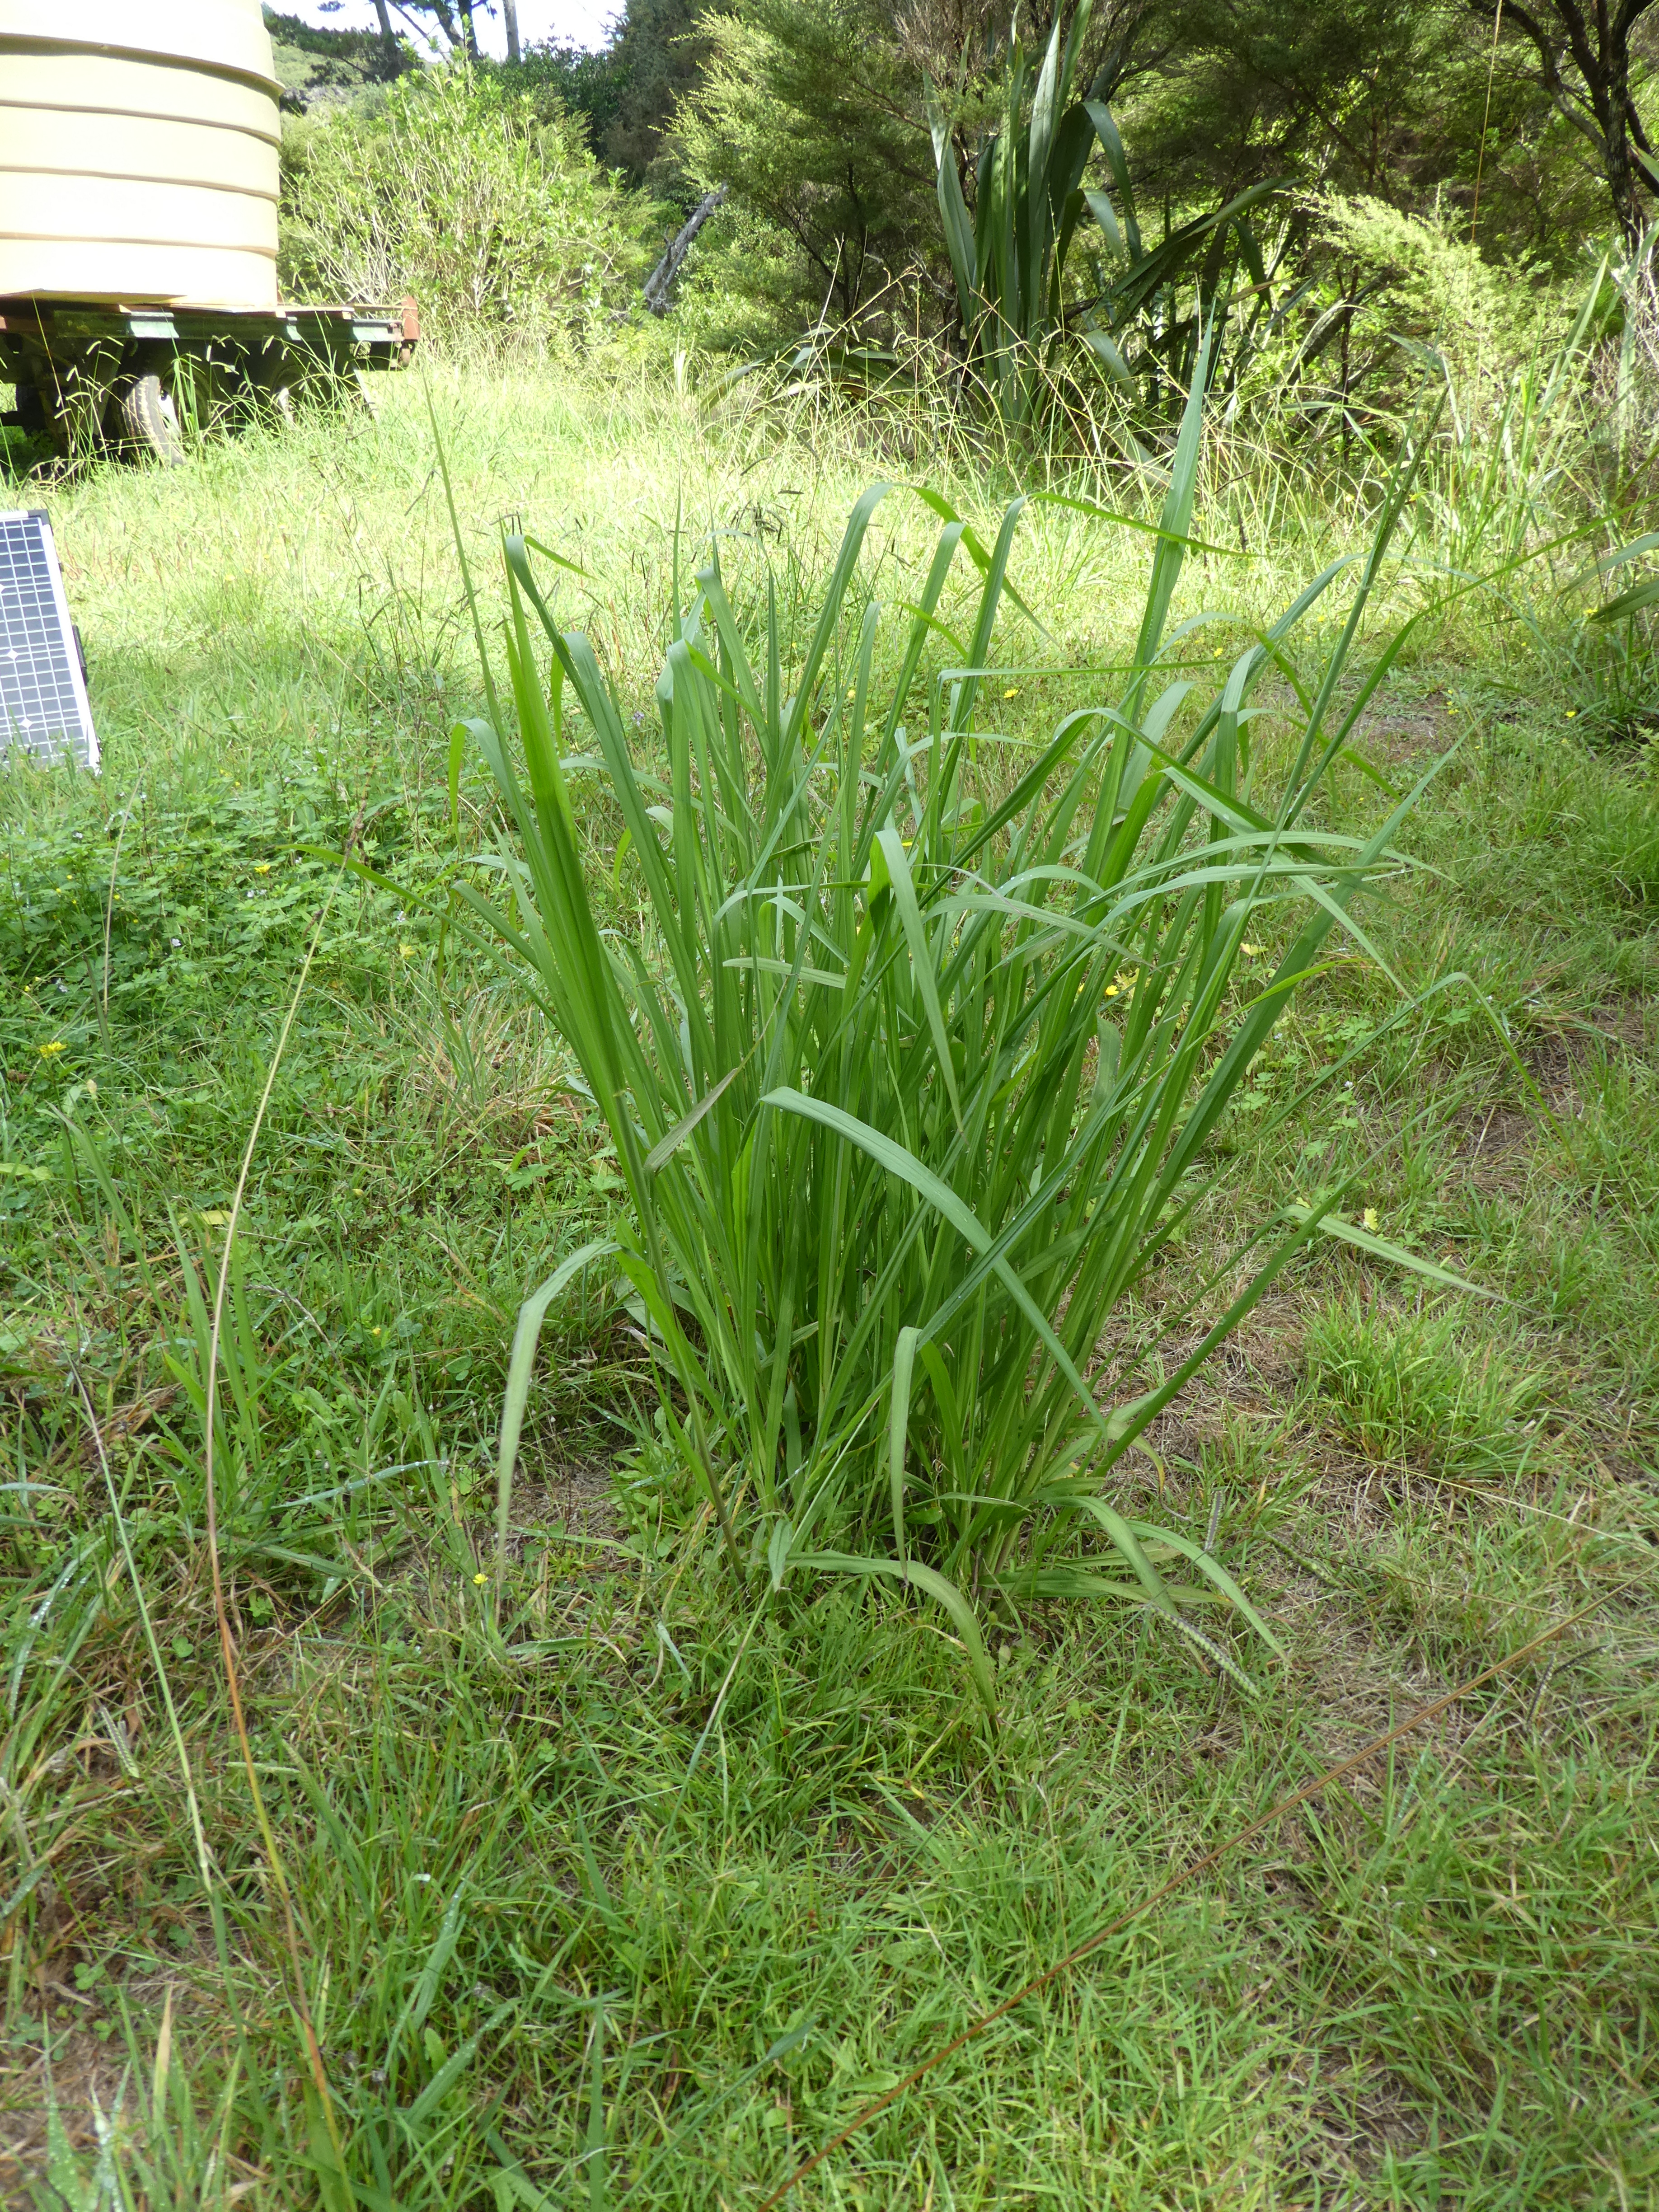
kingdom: Plantae
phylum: Tracheophyta
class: Liliopsida
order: Poales
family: Poaceae
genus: Paspalum
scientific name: Paspalum urvillei
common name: Vasey's grass
